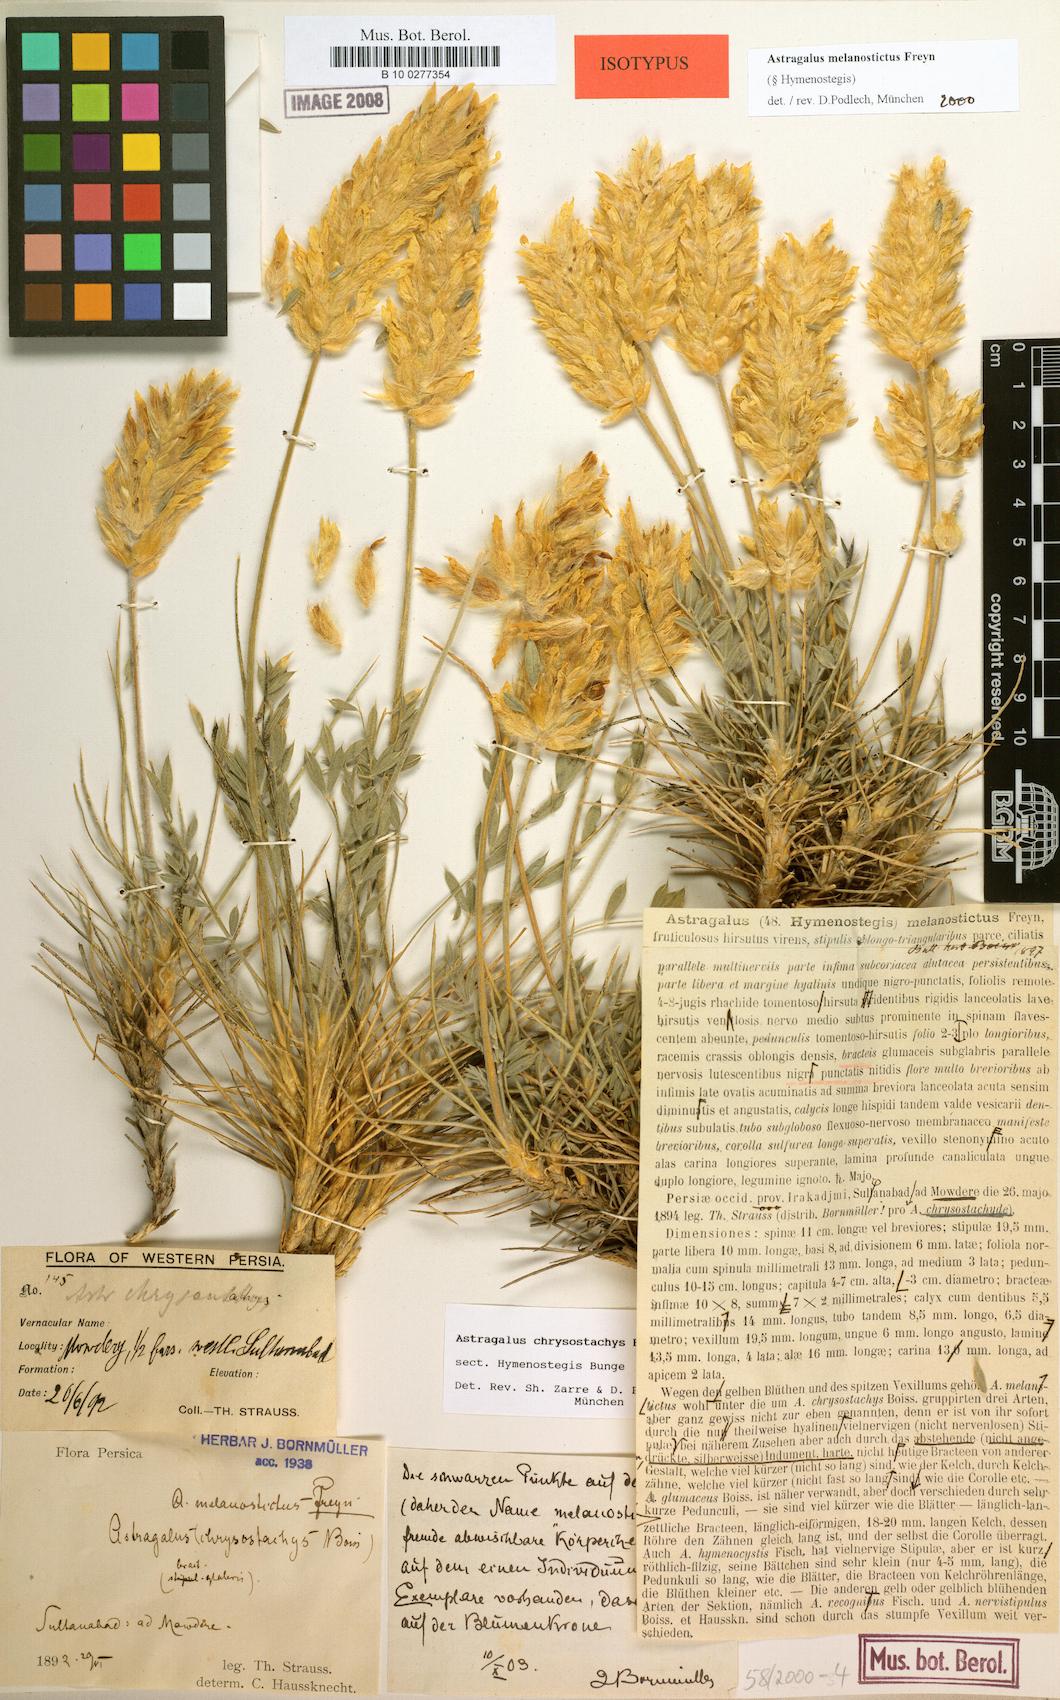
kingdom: Plantae
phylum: Tracheophyta
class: Magnoliopsida
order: Fabales
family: Fabaceae
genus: Astragalus
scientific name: Astragalus melanostictus
